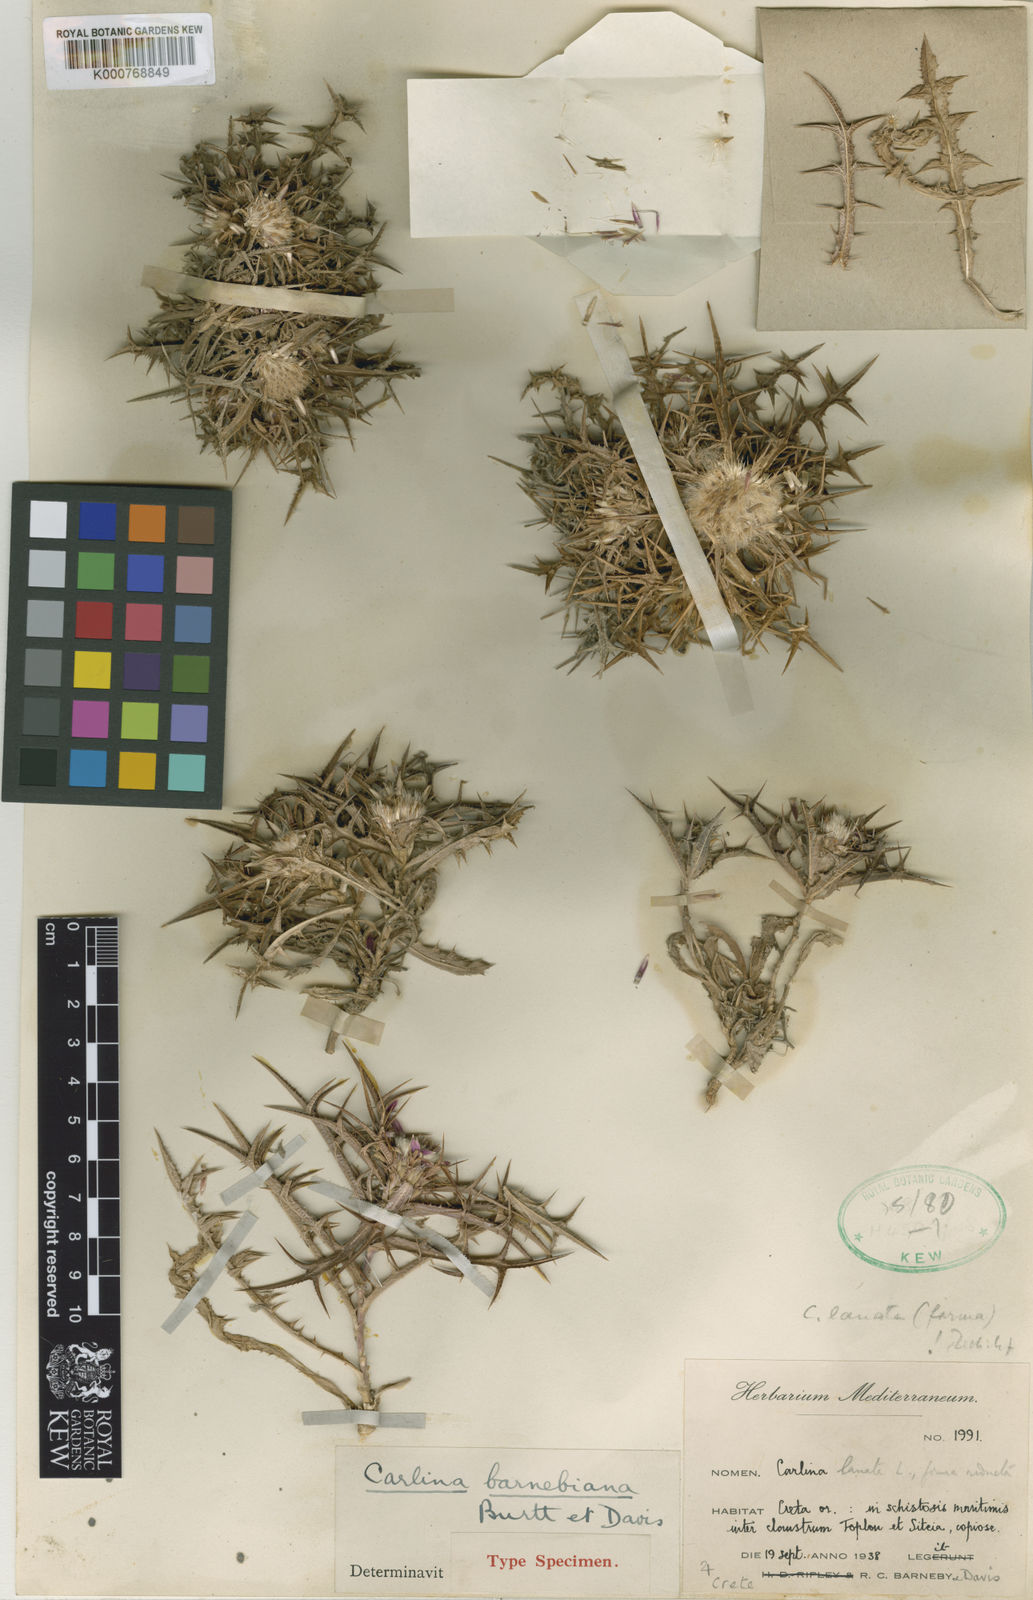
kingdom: Plantae
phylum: Tracheophyta
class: Magnoliopsida
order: Asterales
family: Asteraceae
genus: Carlina
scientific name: Carlina barnebiana
